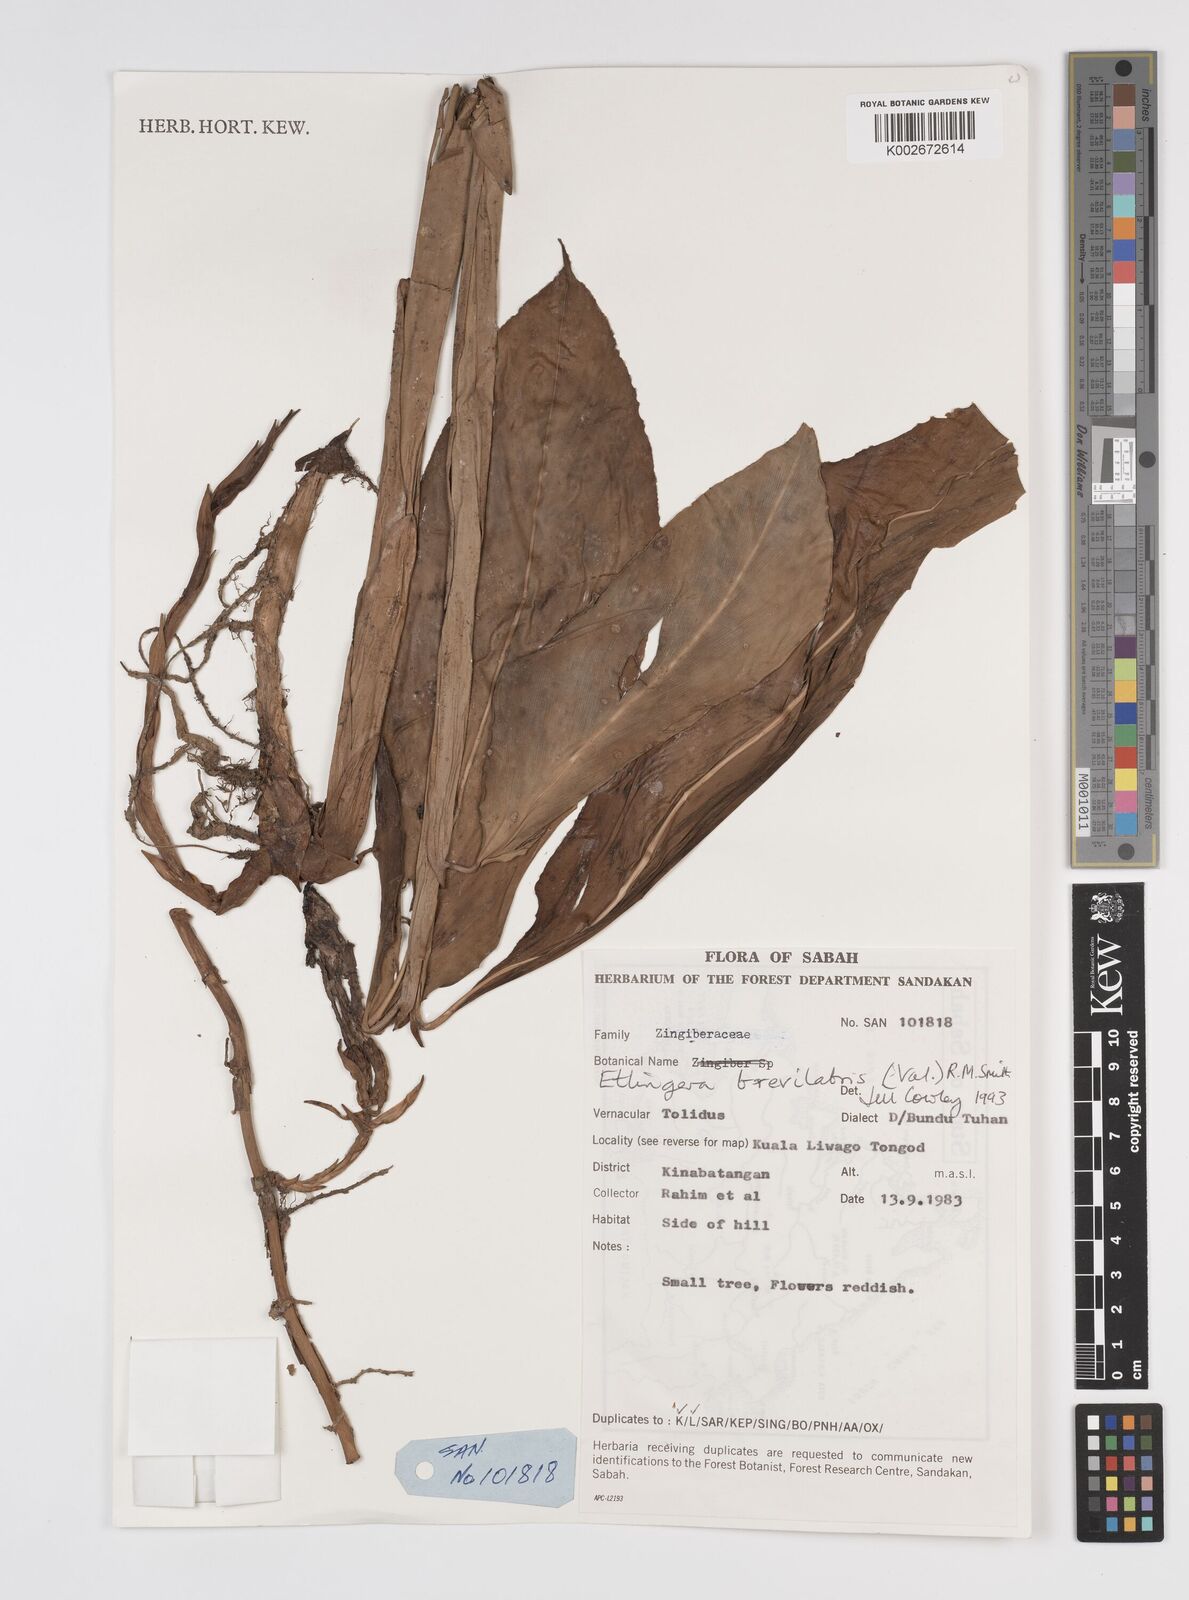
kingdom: Plantae
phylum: Tracheophyta
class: Liliopsida
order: Zingiberales
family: Zingiberaceae
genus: Etlingera
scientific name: Etlingera
